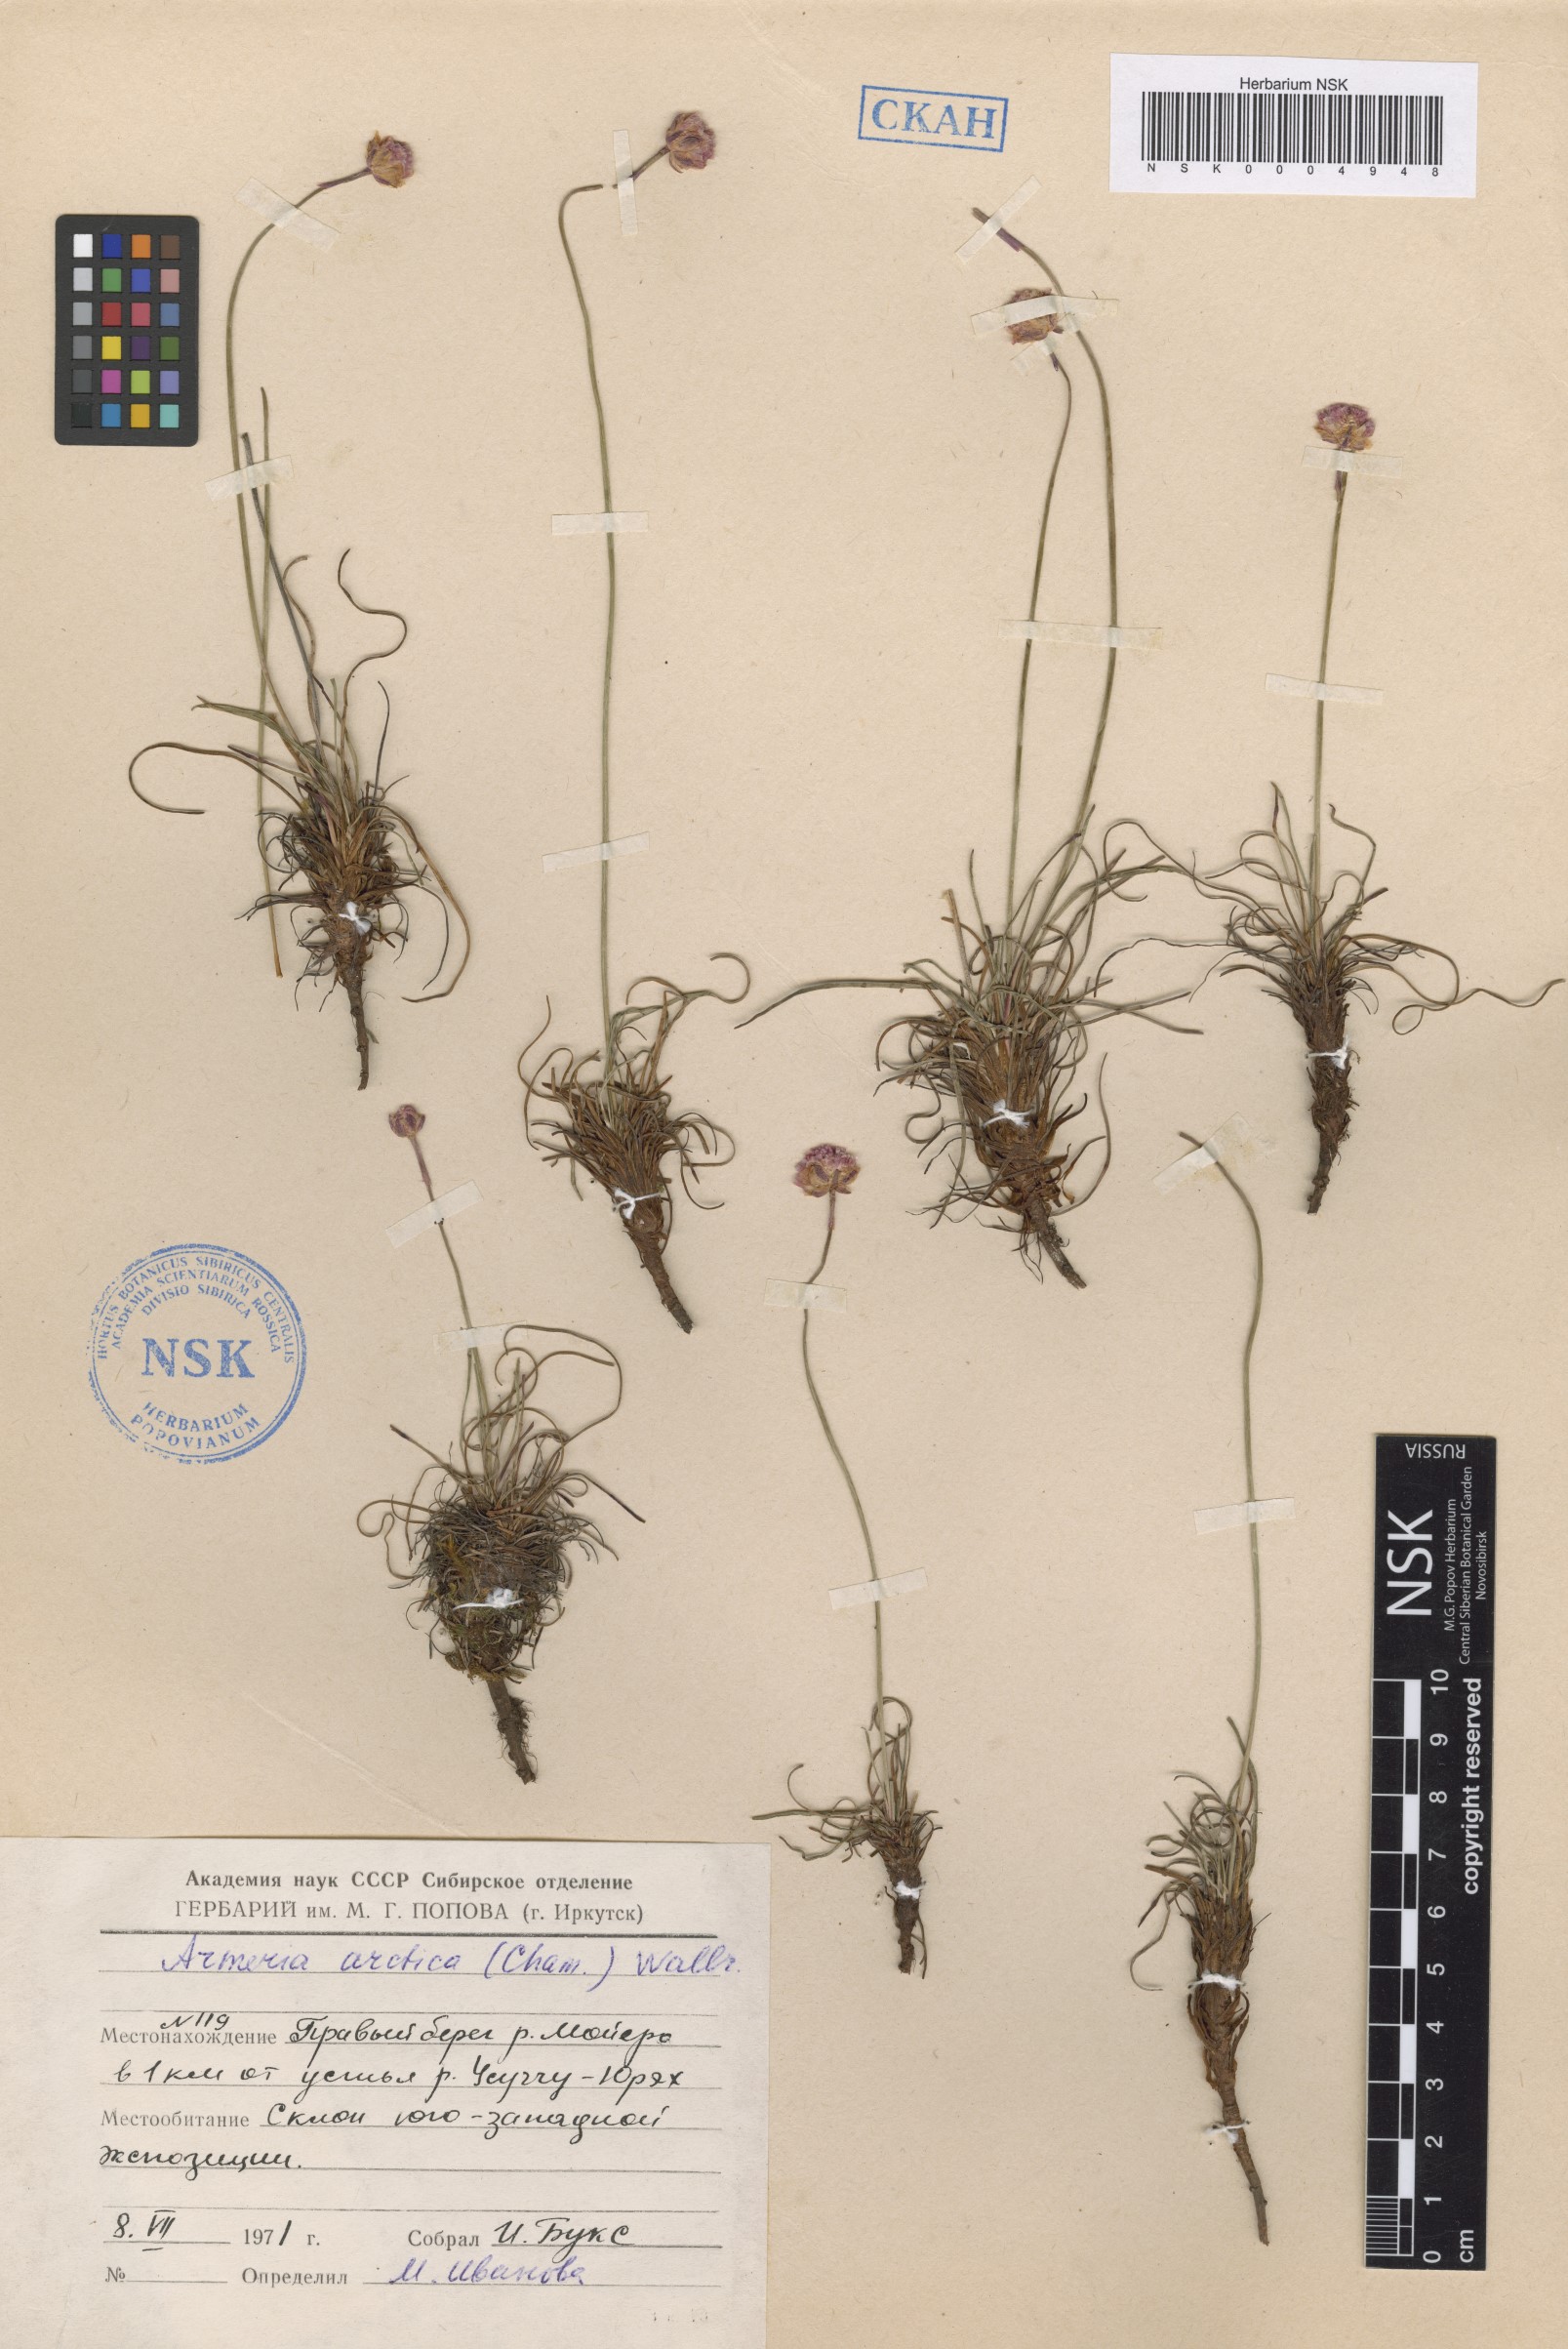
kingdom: Plantae
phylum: Tracheophyta
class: Magnoliopsida
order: Caryophyllales
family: Plumbaginaceae
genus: Armeria
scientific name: Armeria maritima
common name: Thrift
